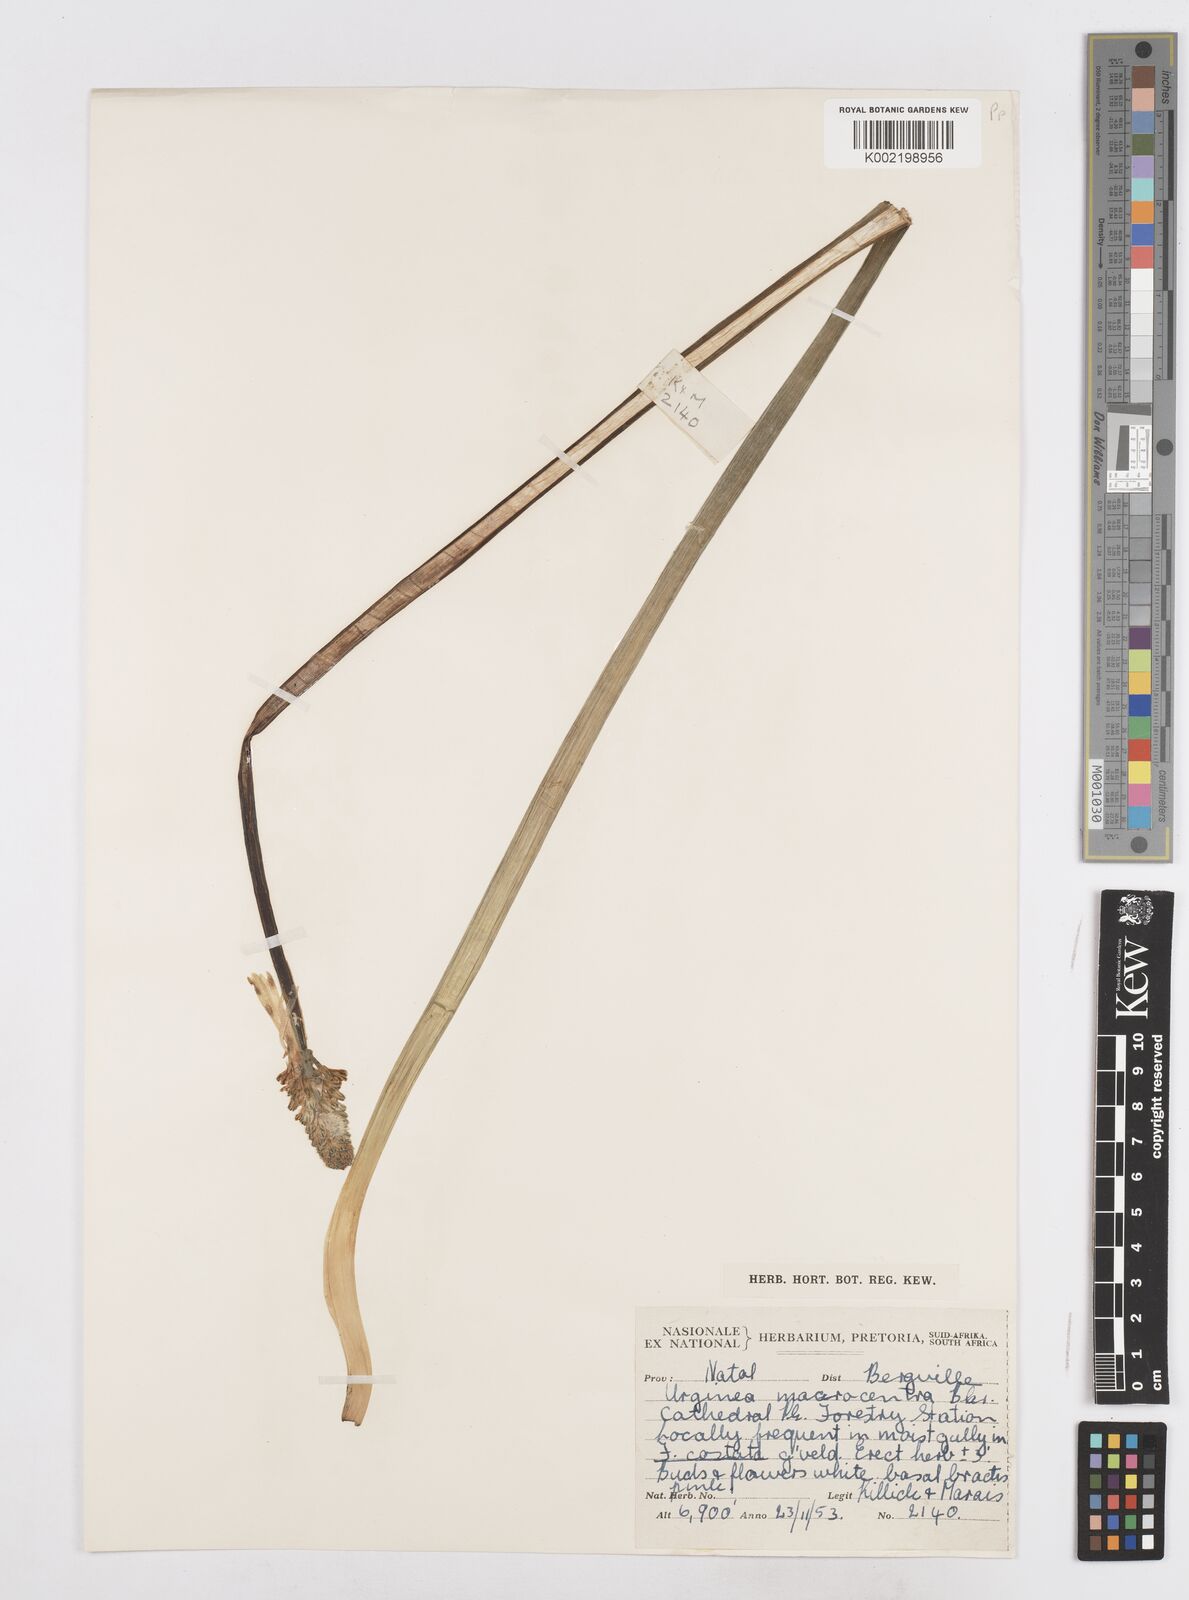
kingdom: Plantae
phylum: Tracheophyta
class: Liliopsida
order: Asparagales
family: Asparagaceae
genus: Drimia
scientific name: Drimia macrocentra
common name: Natal slangkop
